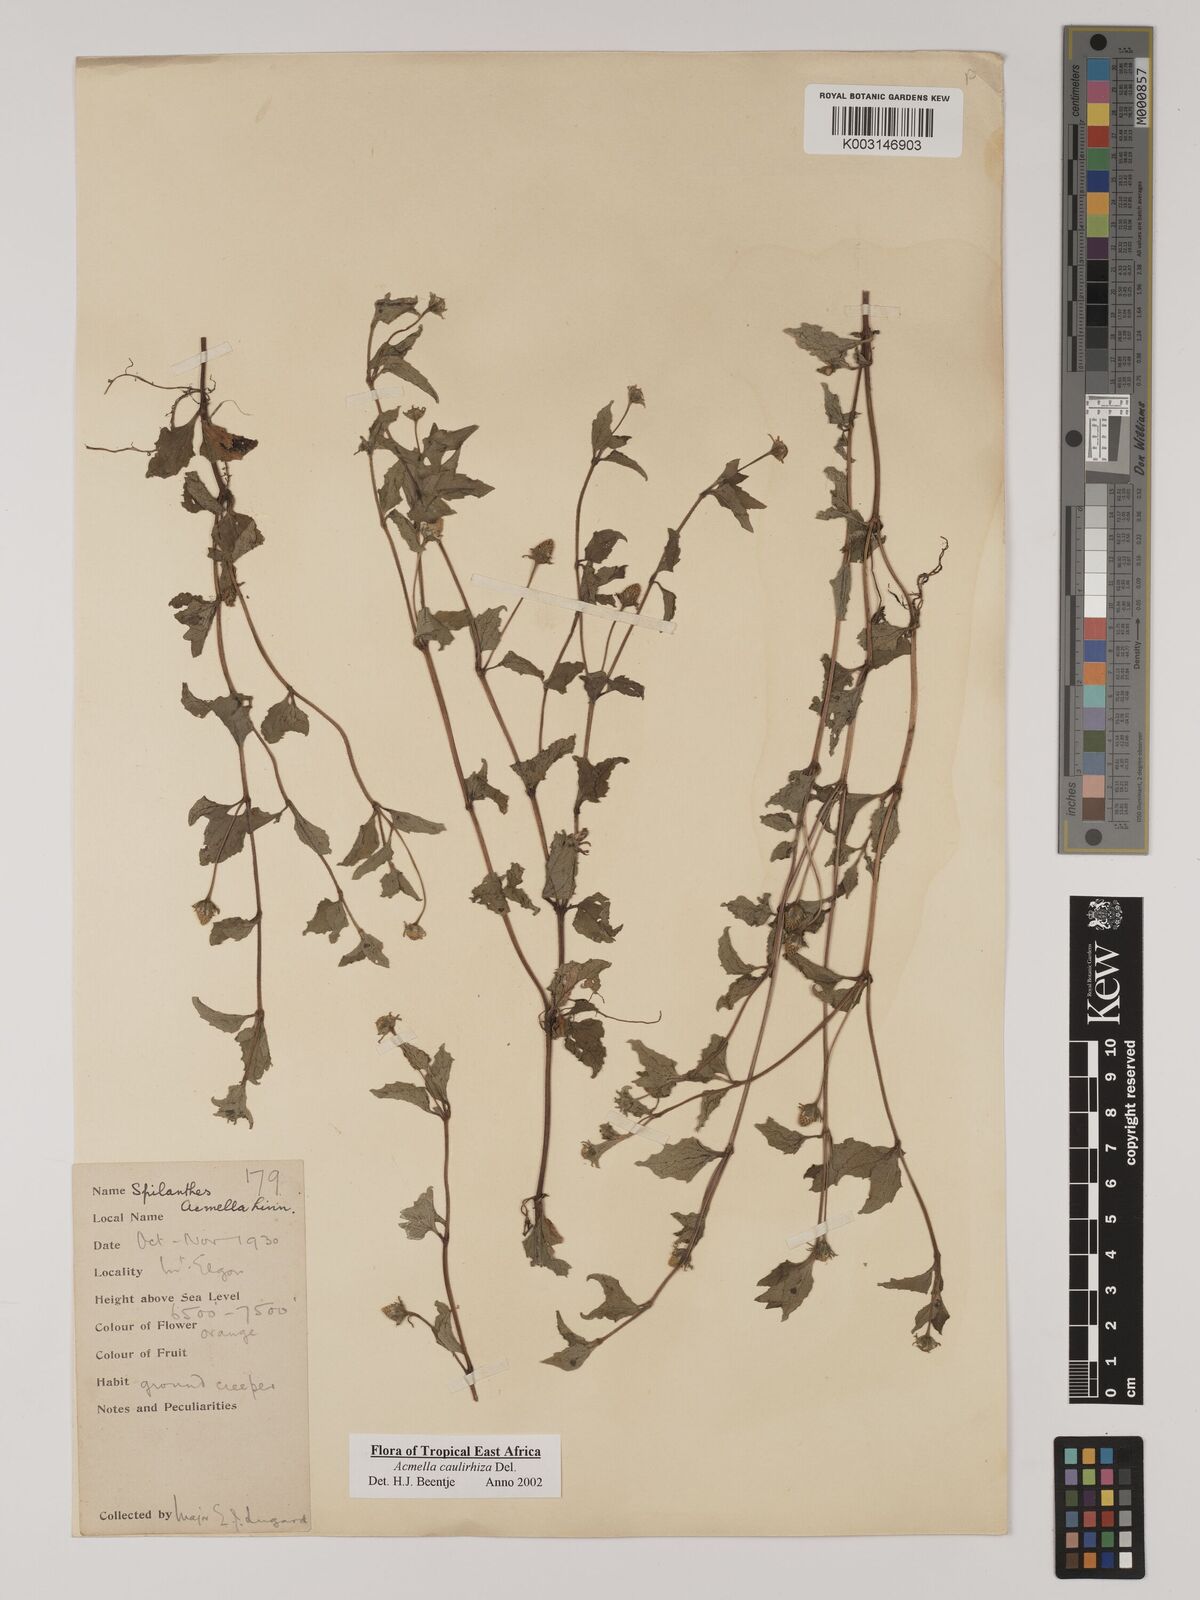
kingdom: Plantae
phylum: Tracheophyta
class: Magnoliopsida
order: Asterales
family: Asteraceae
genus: Acmella
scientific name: Acmella caulirhiza
